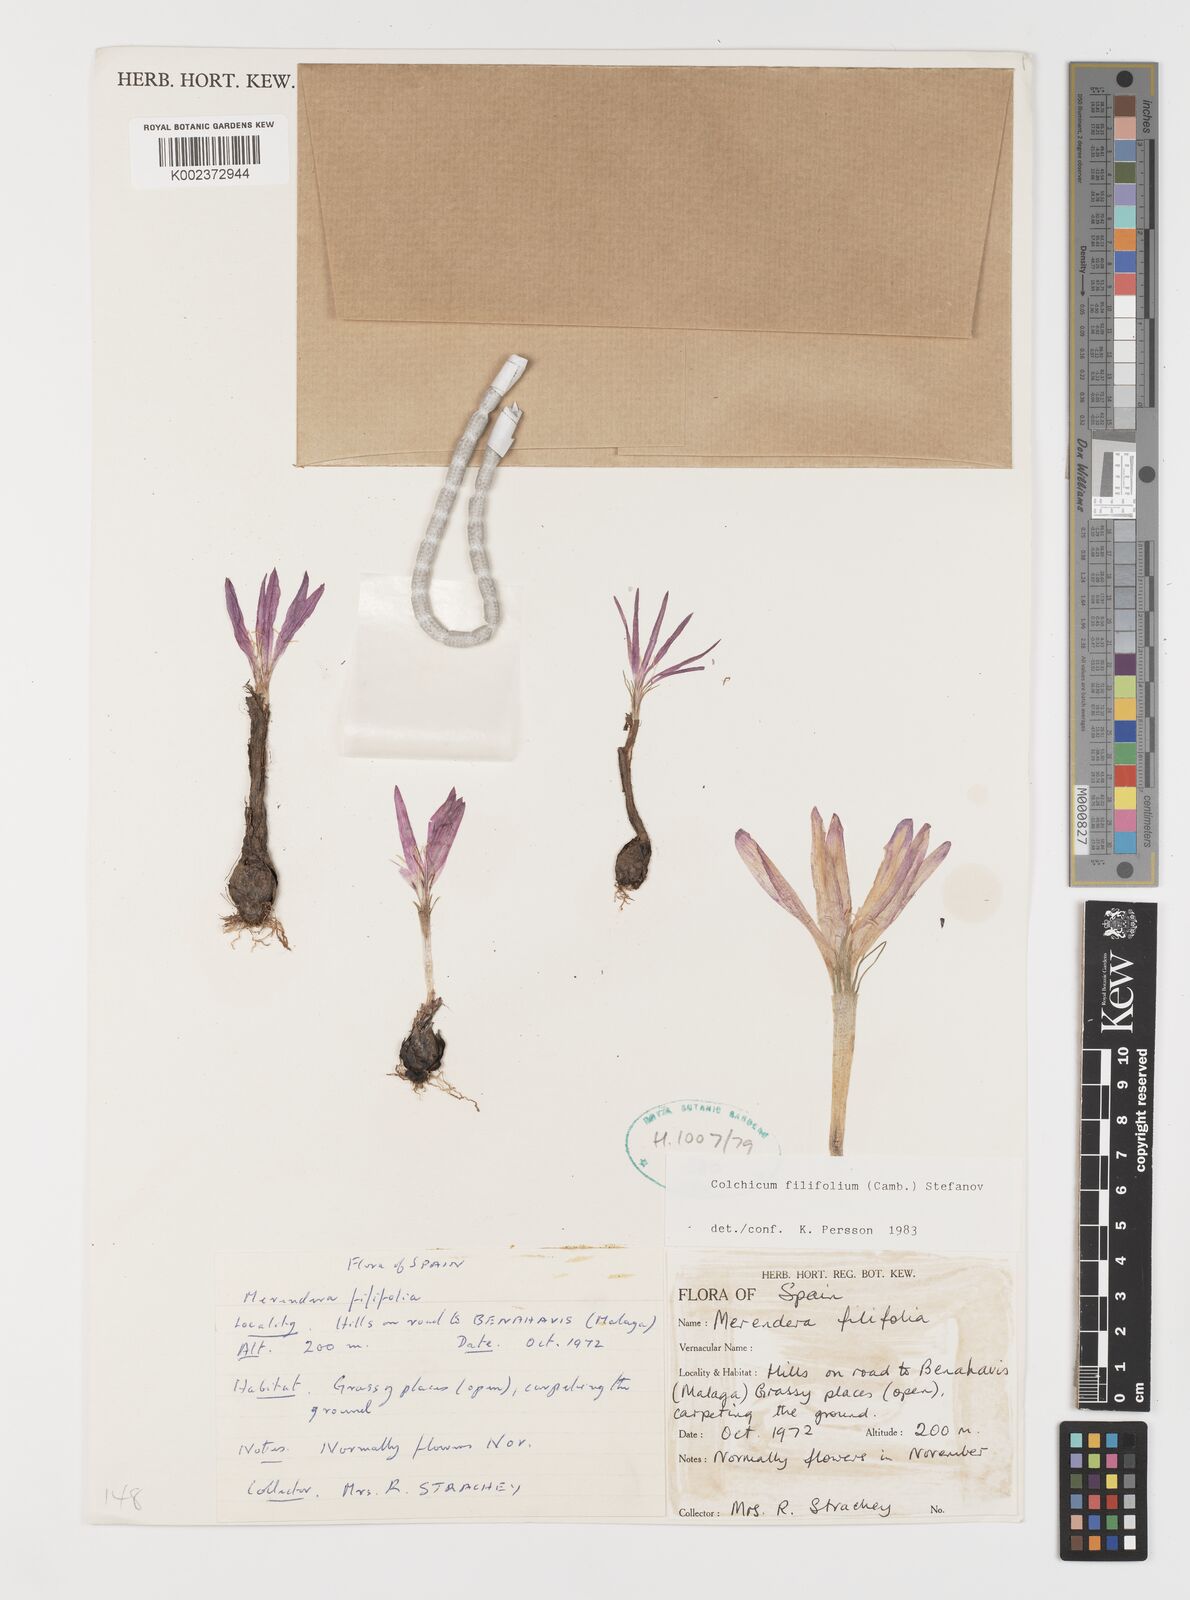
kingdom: Plantae
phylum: Tracheophyta
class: Liliopsida
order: Liliales
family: Colchicaceae
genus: Colchicum
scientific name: Colchicum filifolium
